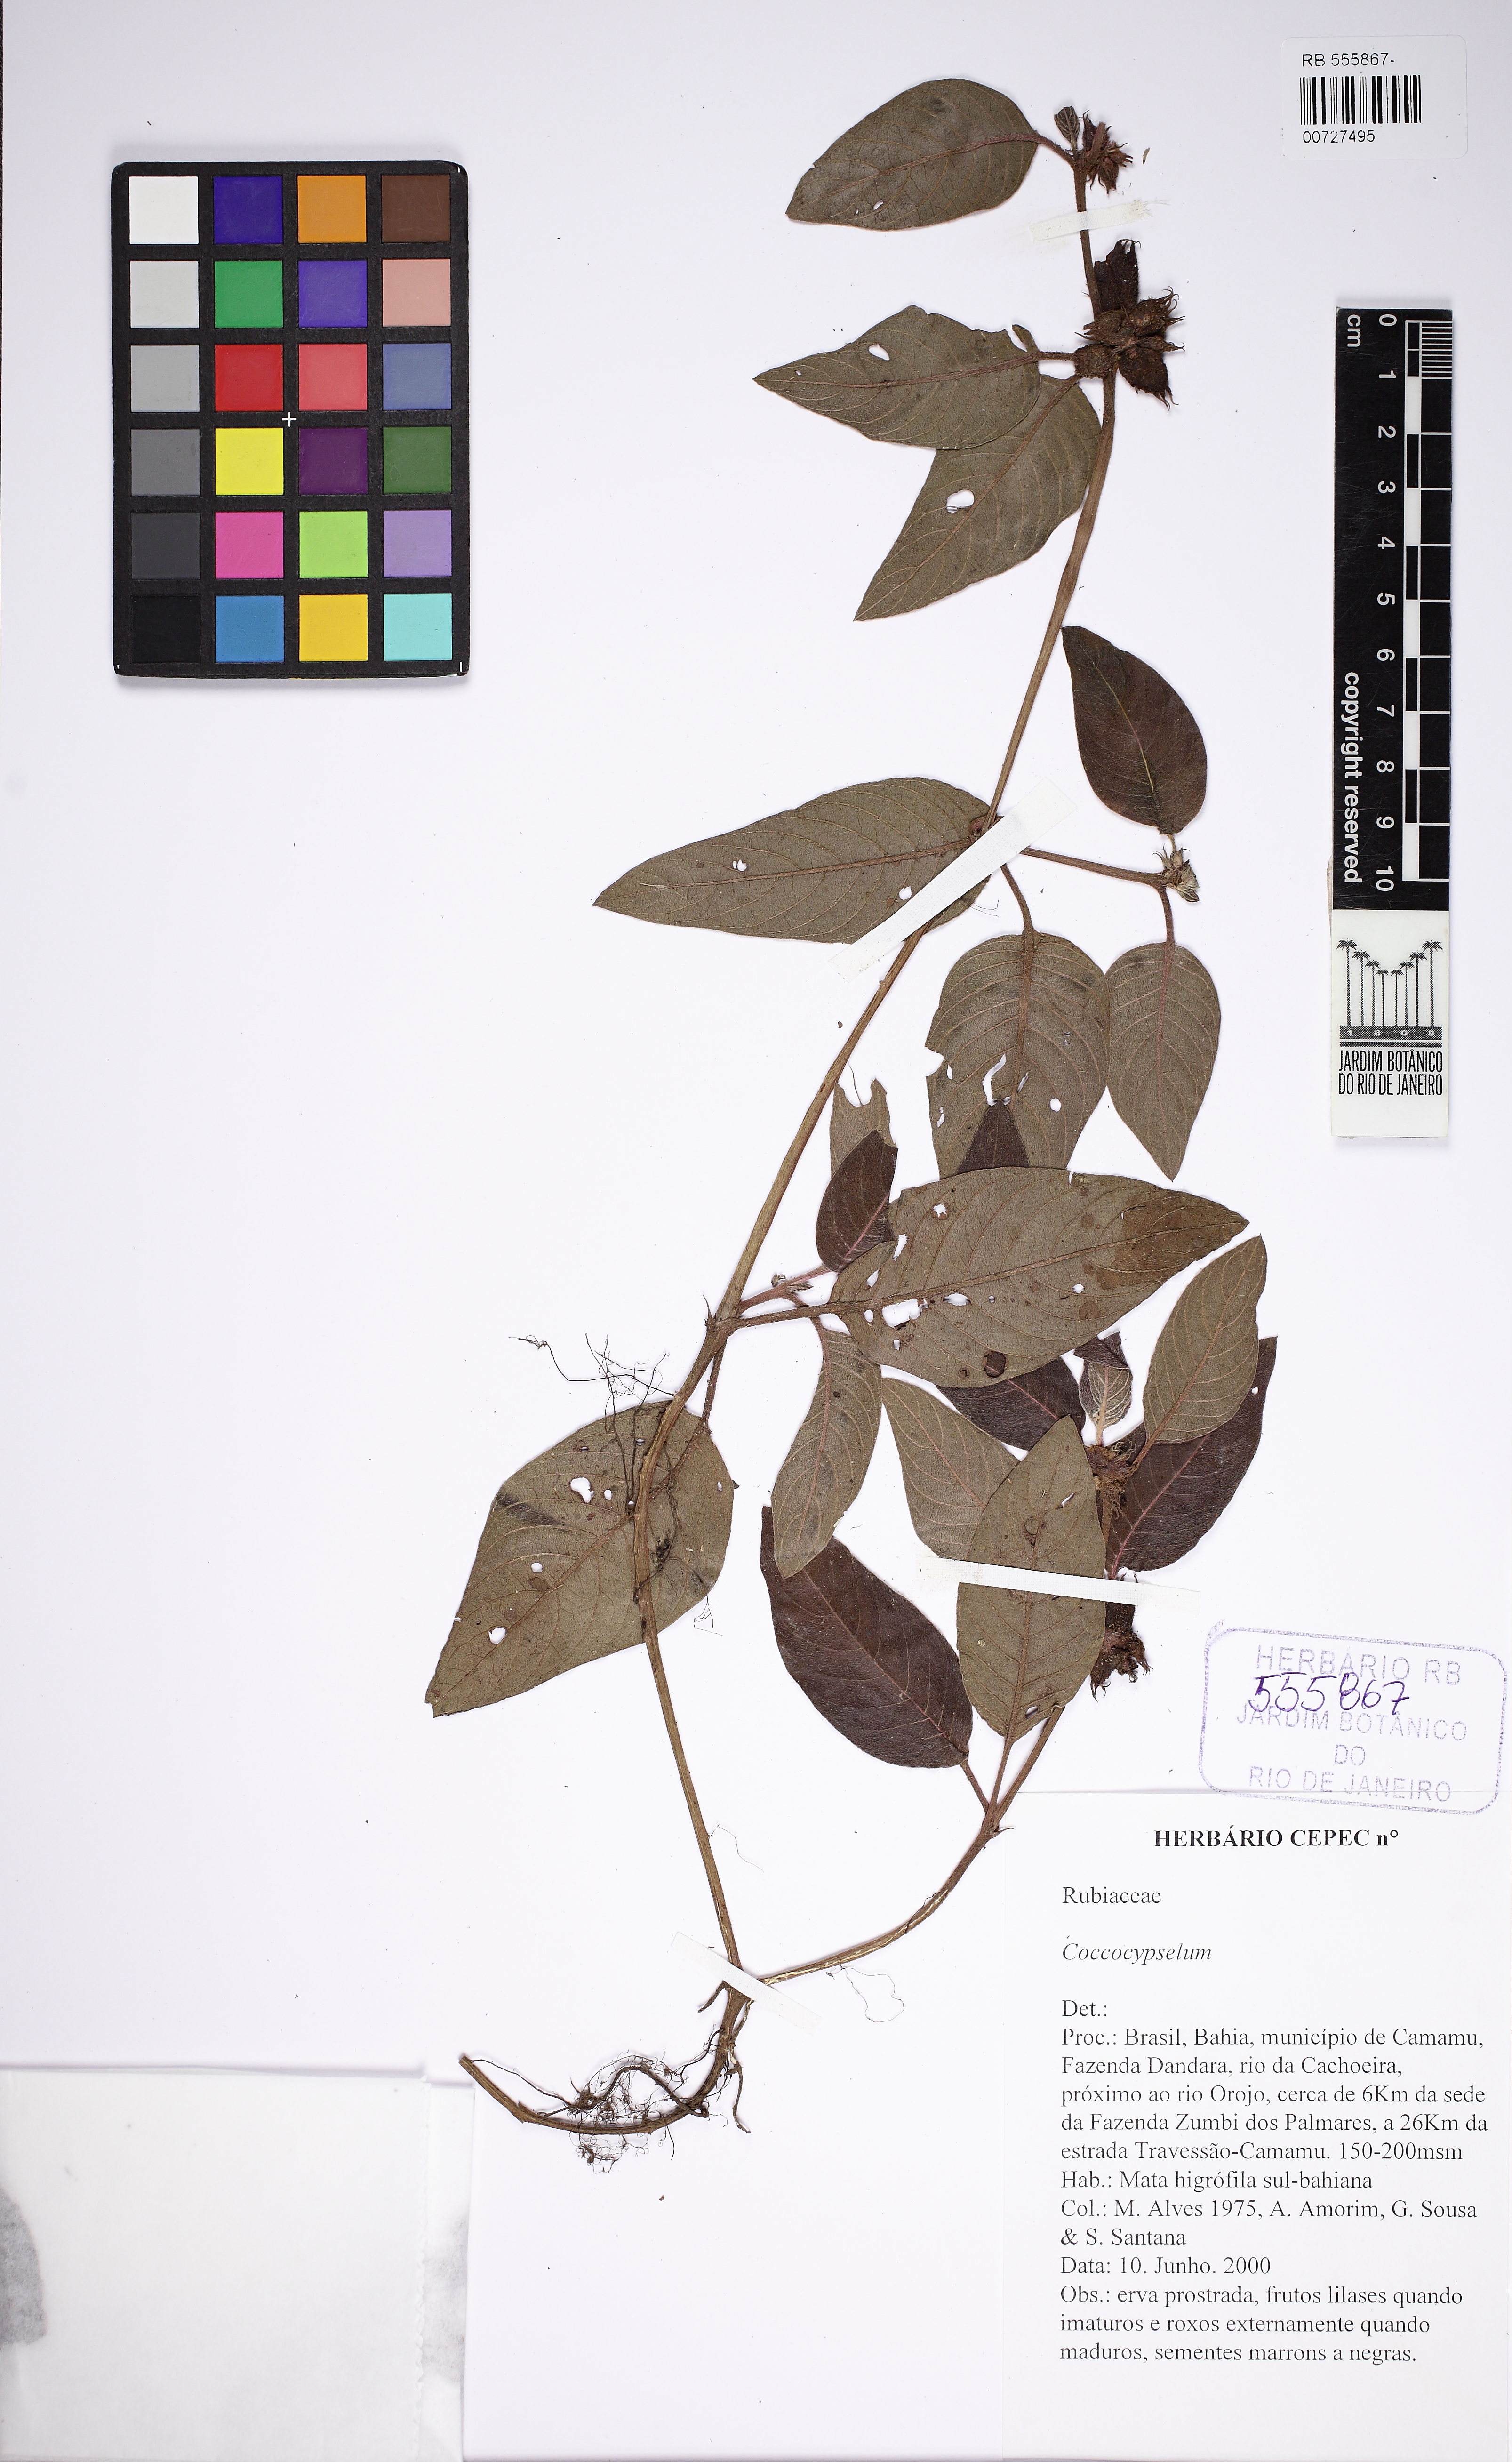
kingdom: Plantae
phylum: Tracheophyta
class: Magnoliopsida
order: Gentianales
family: Rubiaceae
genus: Coccocypselum
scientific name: Coccocypselum
